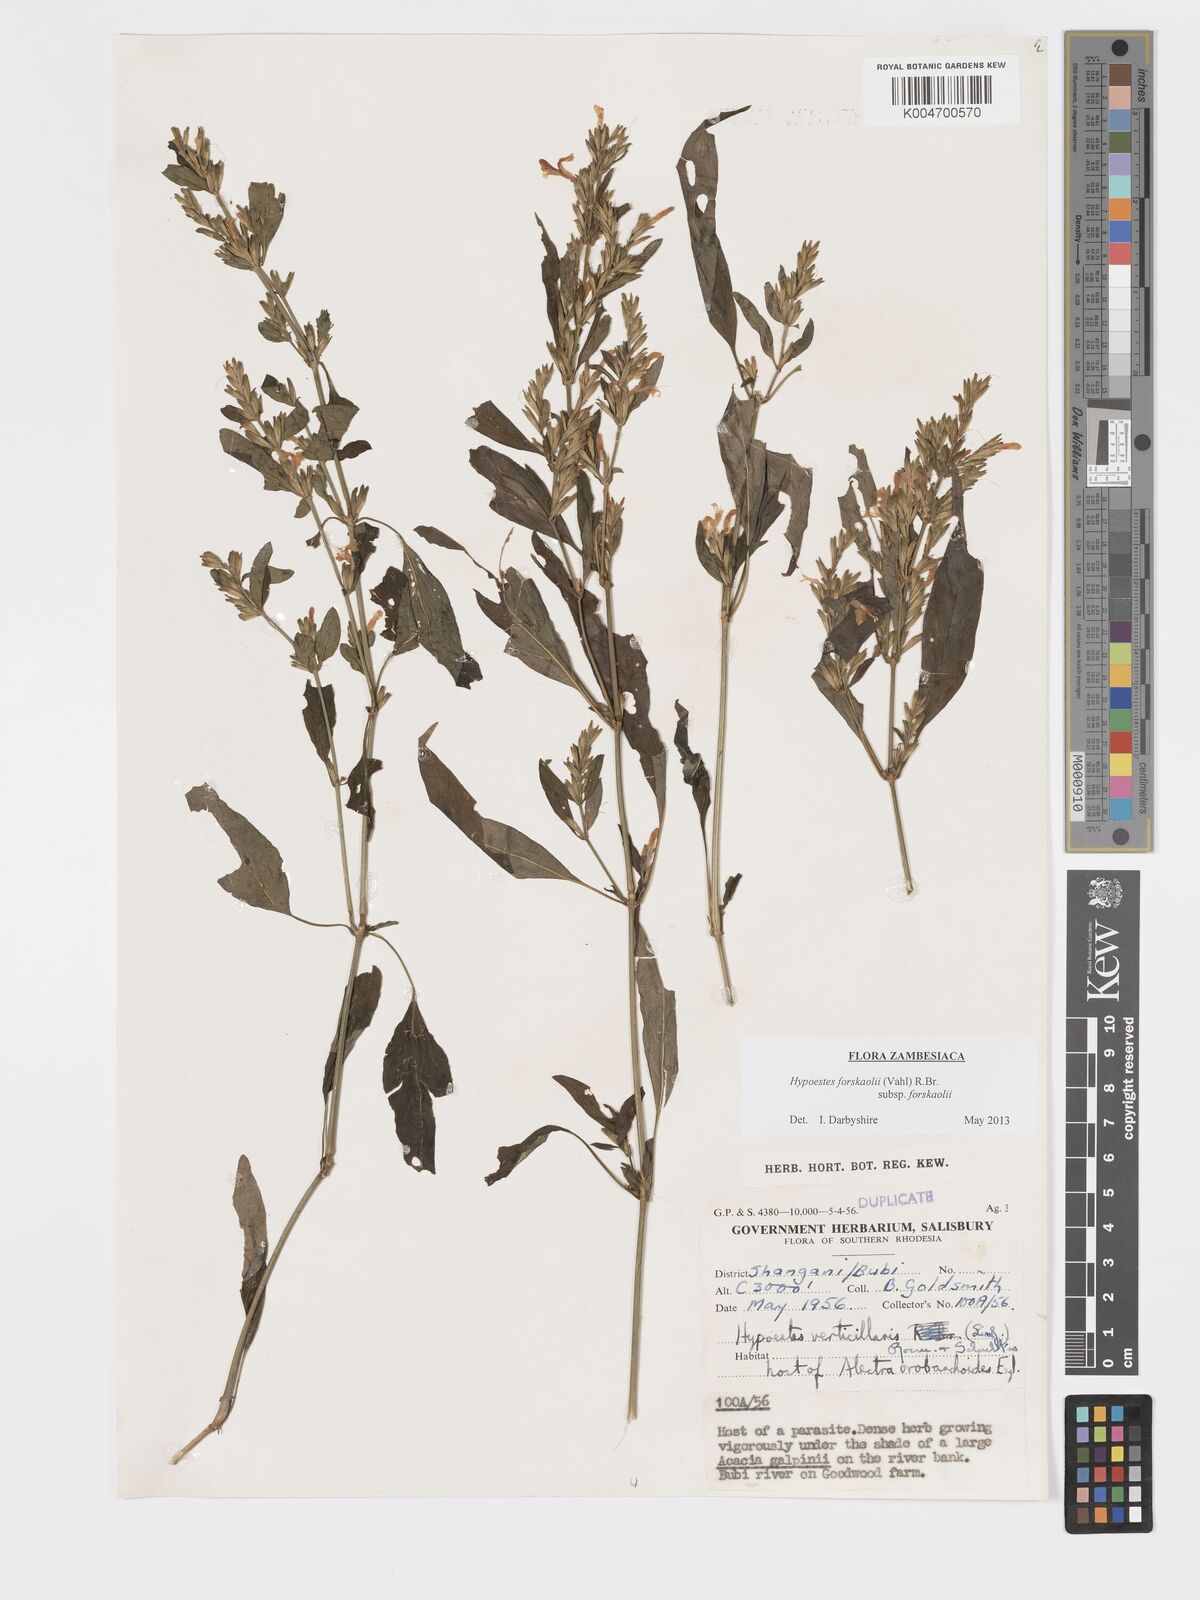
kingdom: Plantae
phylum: Tracheophyta
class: Magnoliopsida
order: Lamiales
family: Acanthaceae
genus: Hypoestes
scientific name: Hypoestes forskaolii
